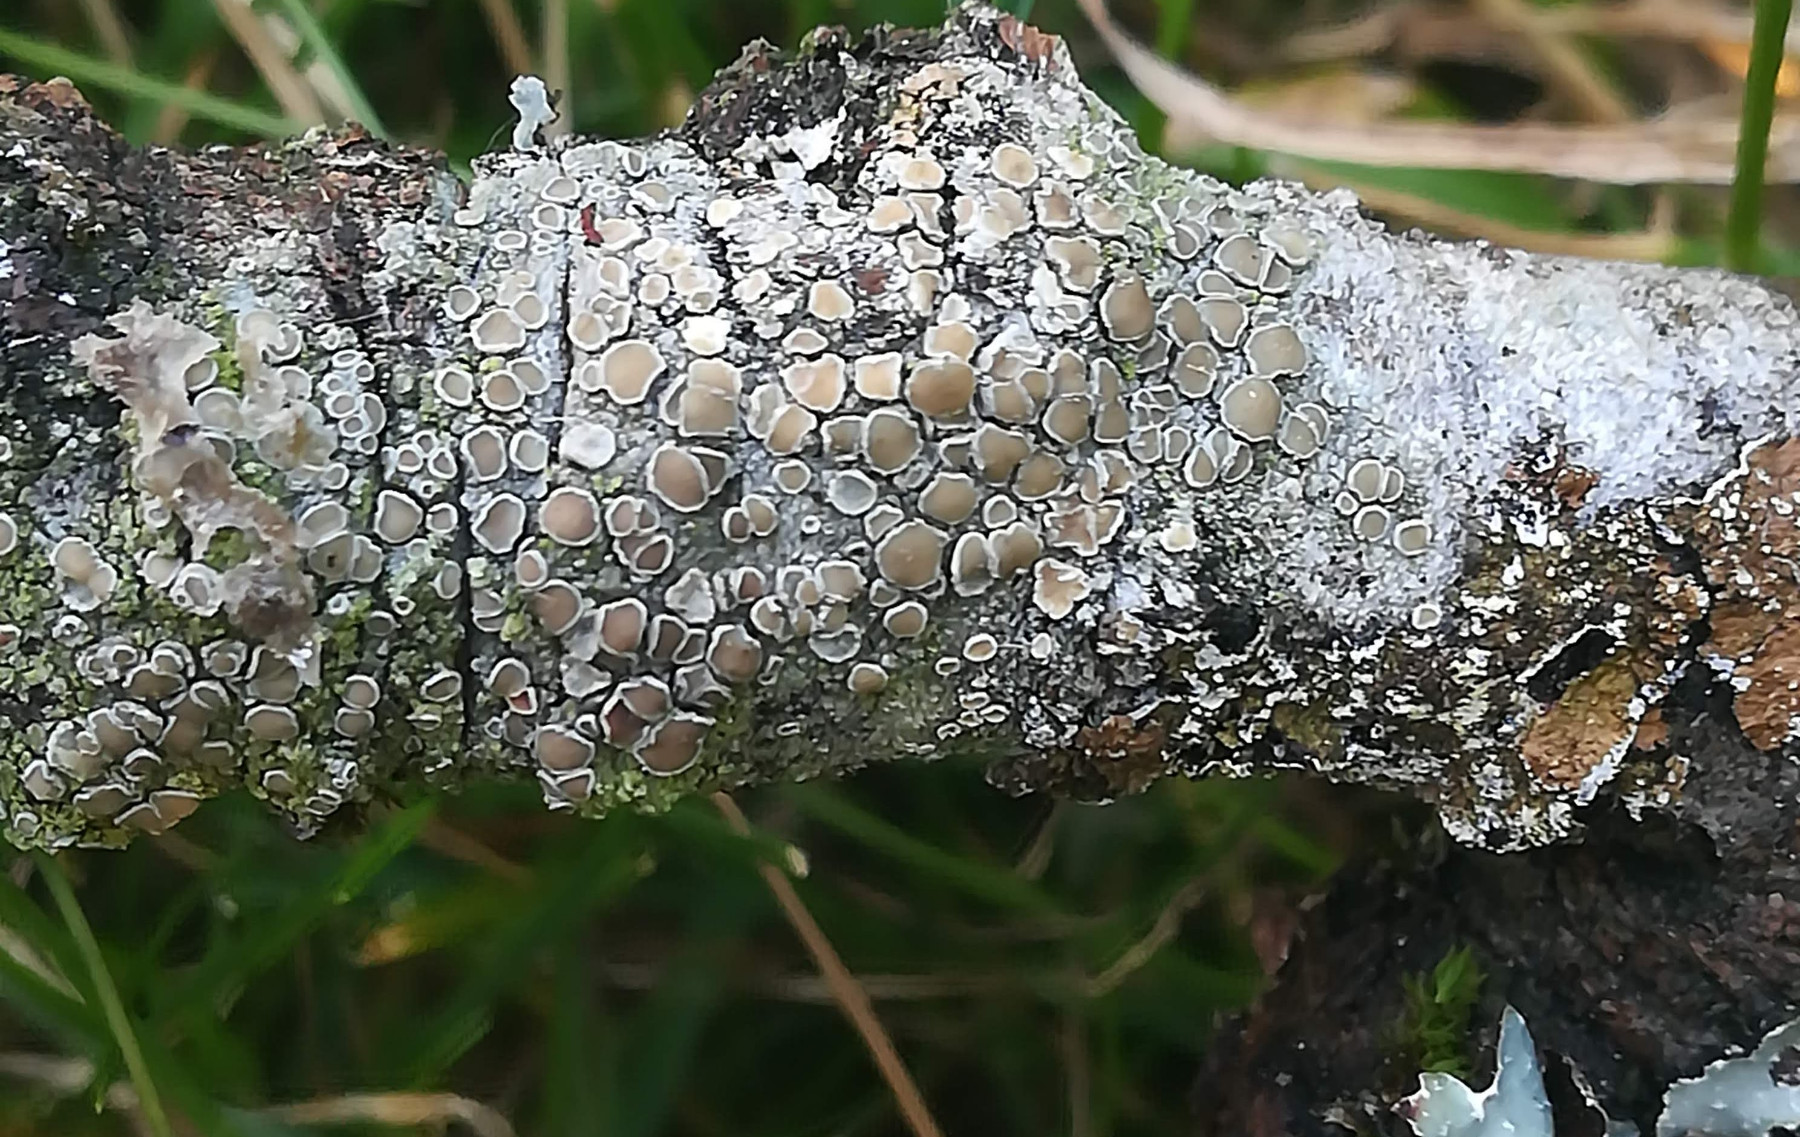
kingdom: Fungi
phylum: Ascomycota
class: Lecanoromycetes
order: Lecanorales
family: Lecanoraceae
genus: Lecanora
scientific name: Lecanora chlarotera
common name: brun kantskivelav
